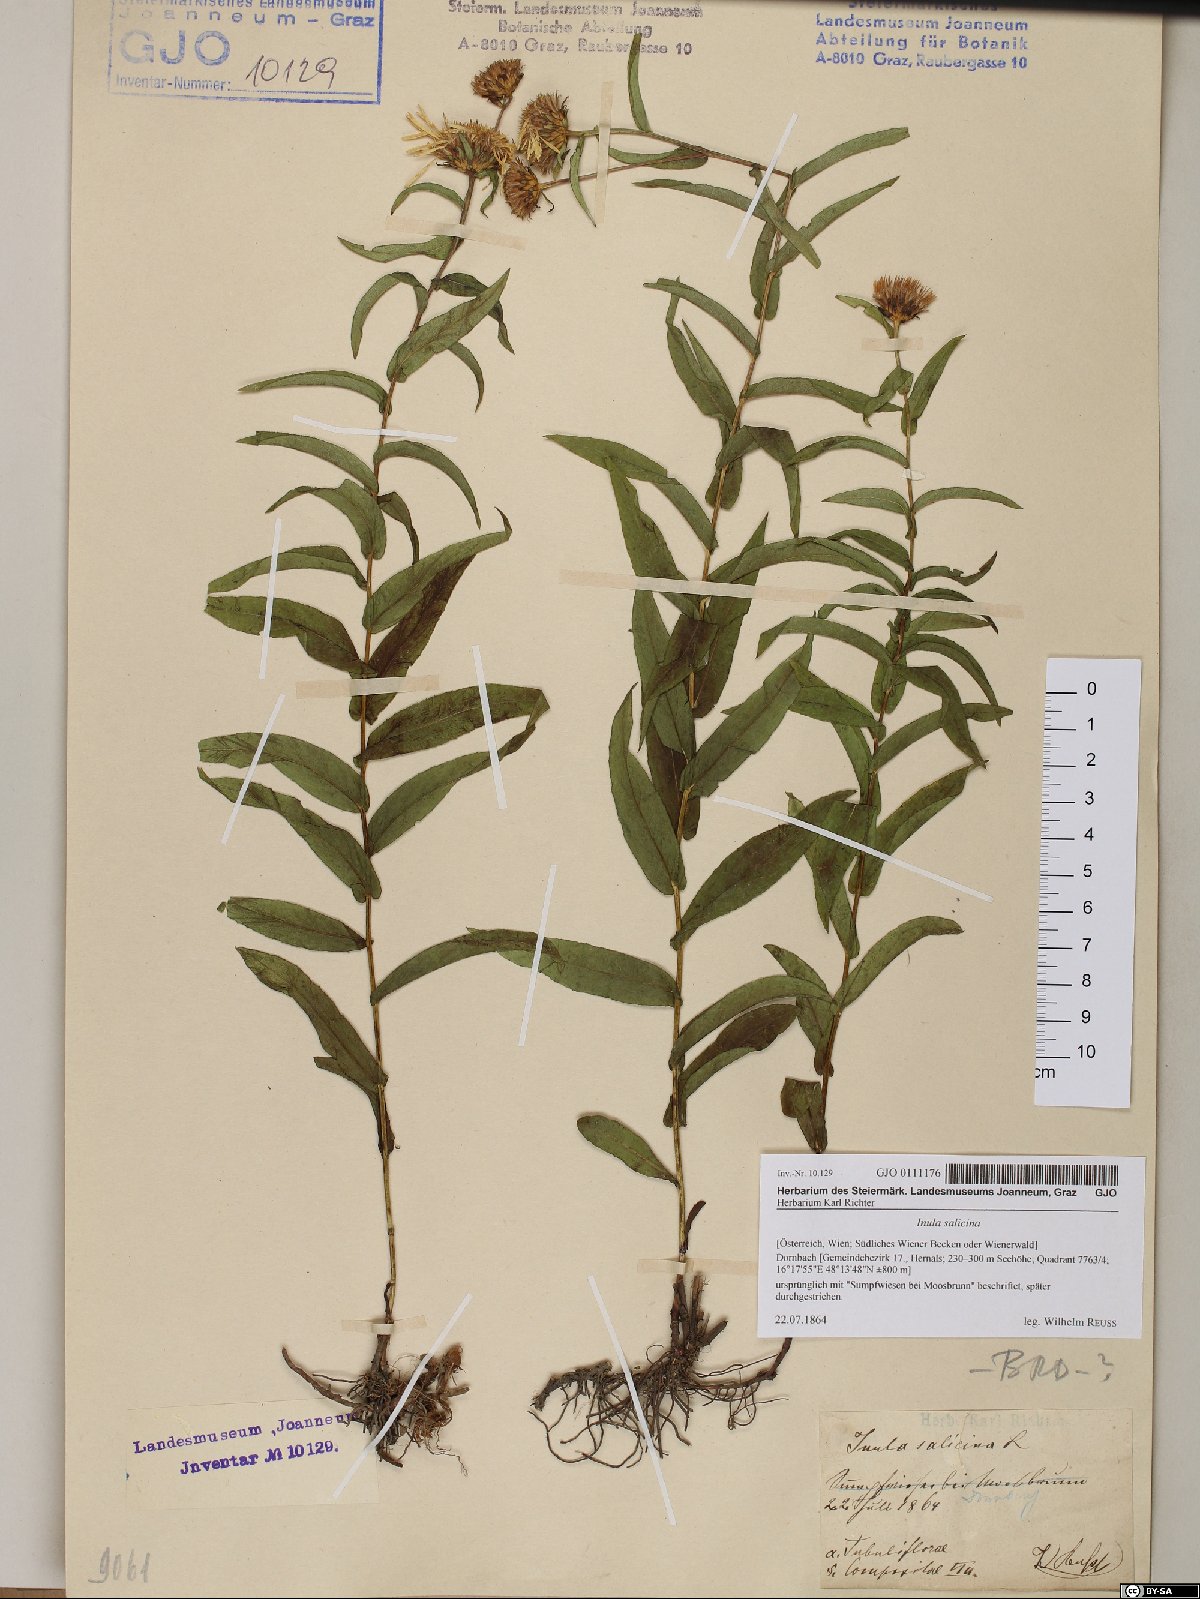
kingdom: Plantae
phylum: Tracheophyta
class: Magnoliopsida
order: Asterales
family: Asteraceae
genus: Pentanema
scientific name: Pentanema salicinum
